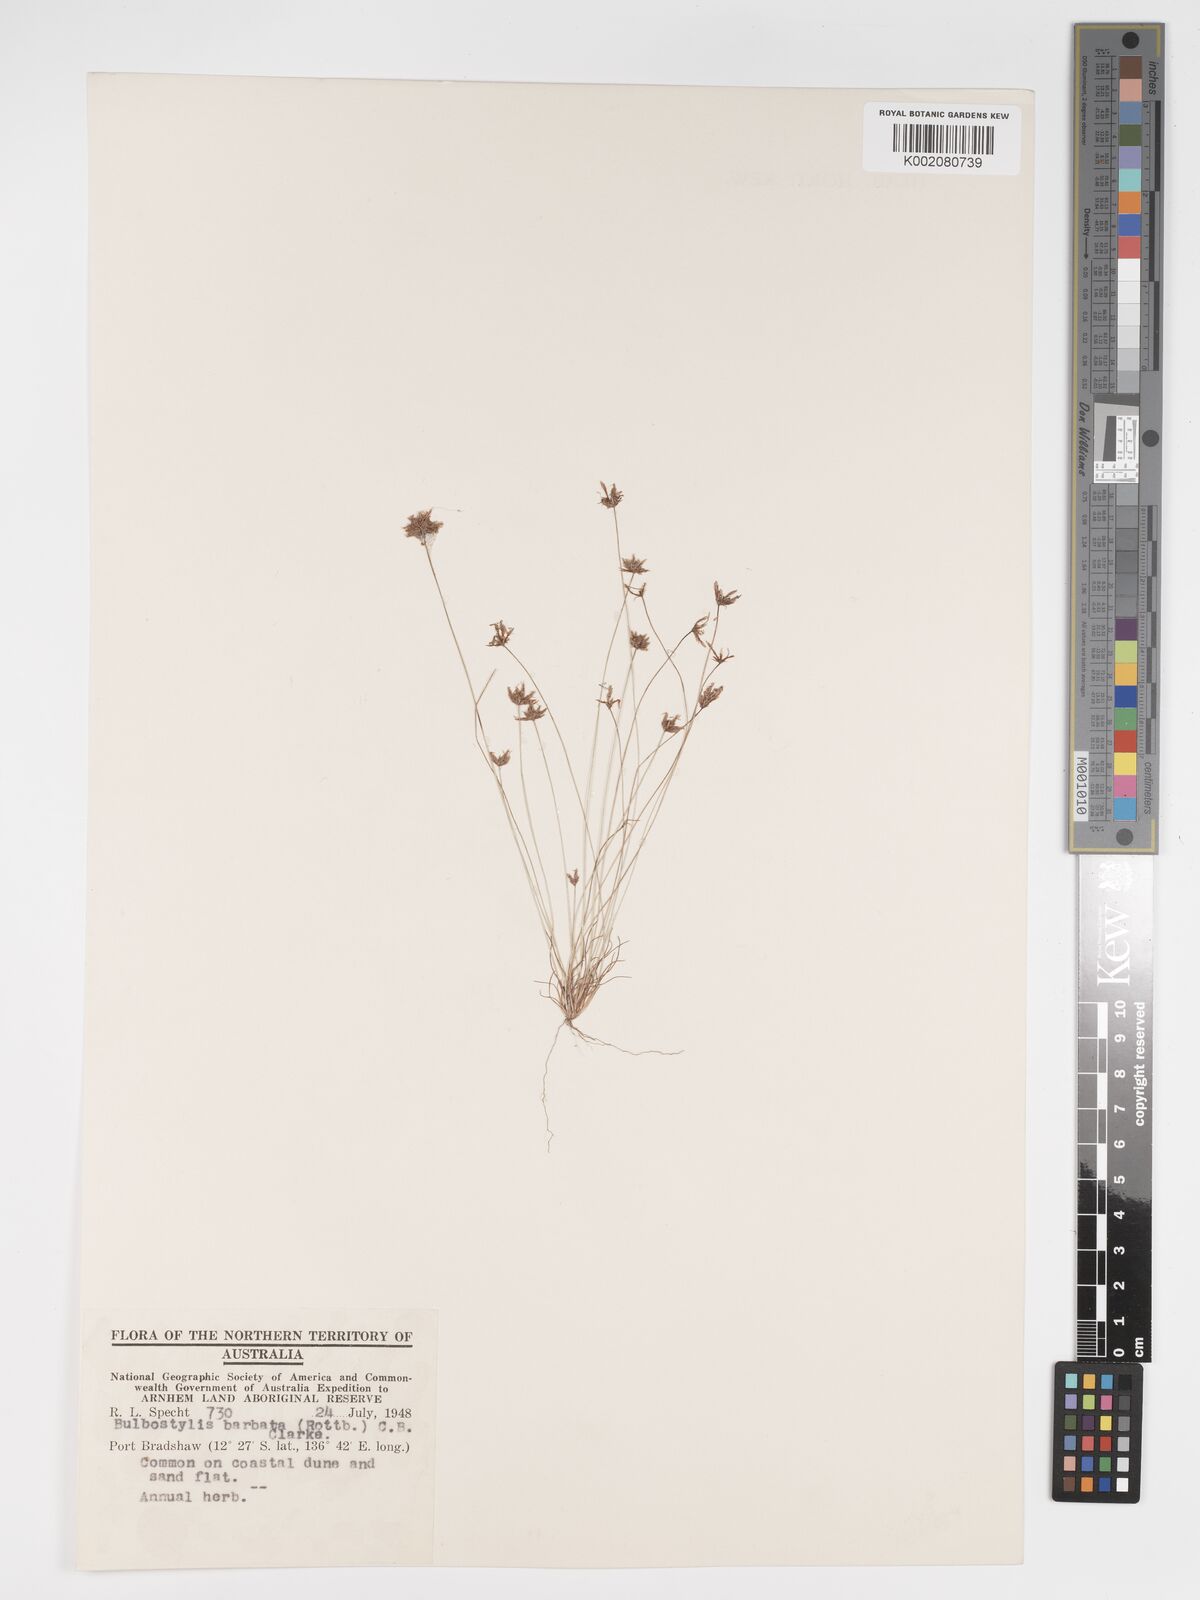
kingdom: Plantae
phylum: Tracheophyta
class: Liliopsida
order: Poales
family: Cyperaceae
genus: Bulbostylis
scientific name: Bulbostylis barbata
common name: Watergrass
